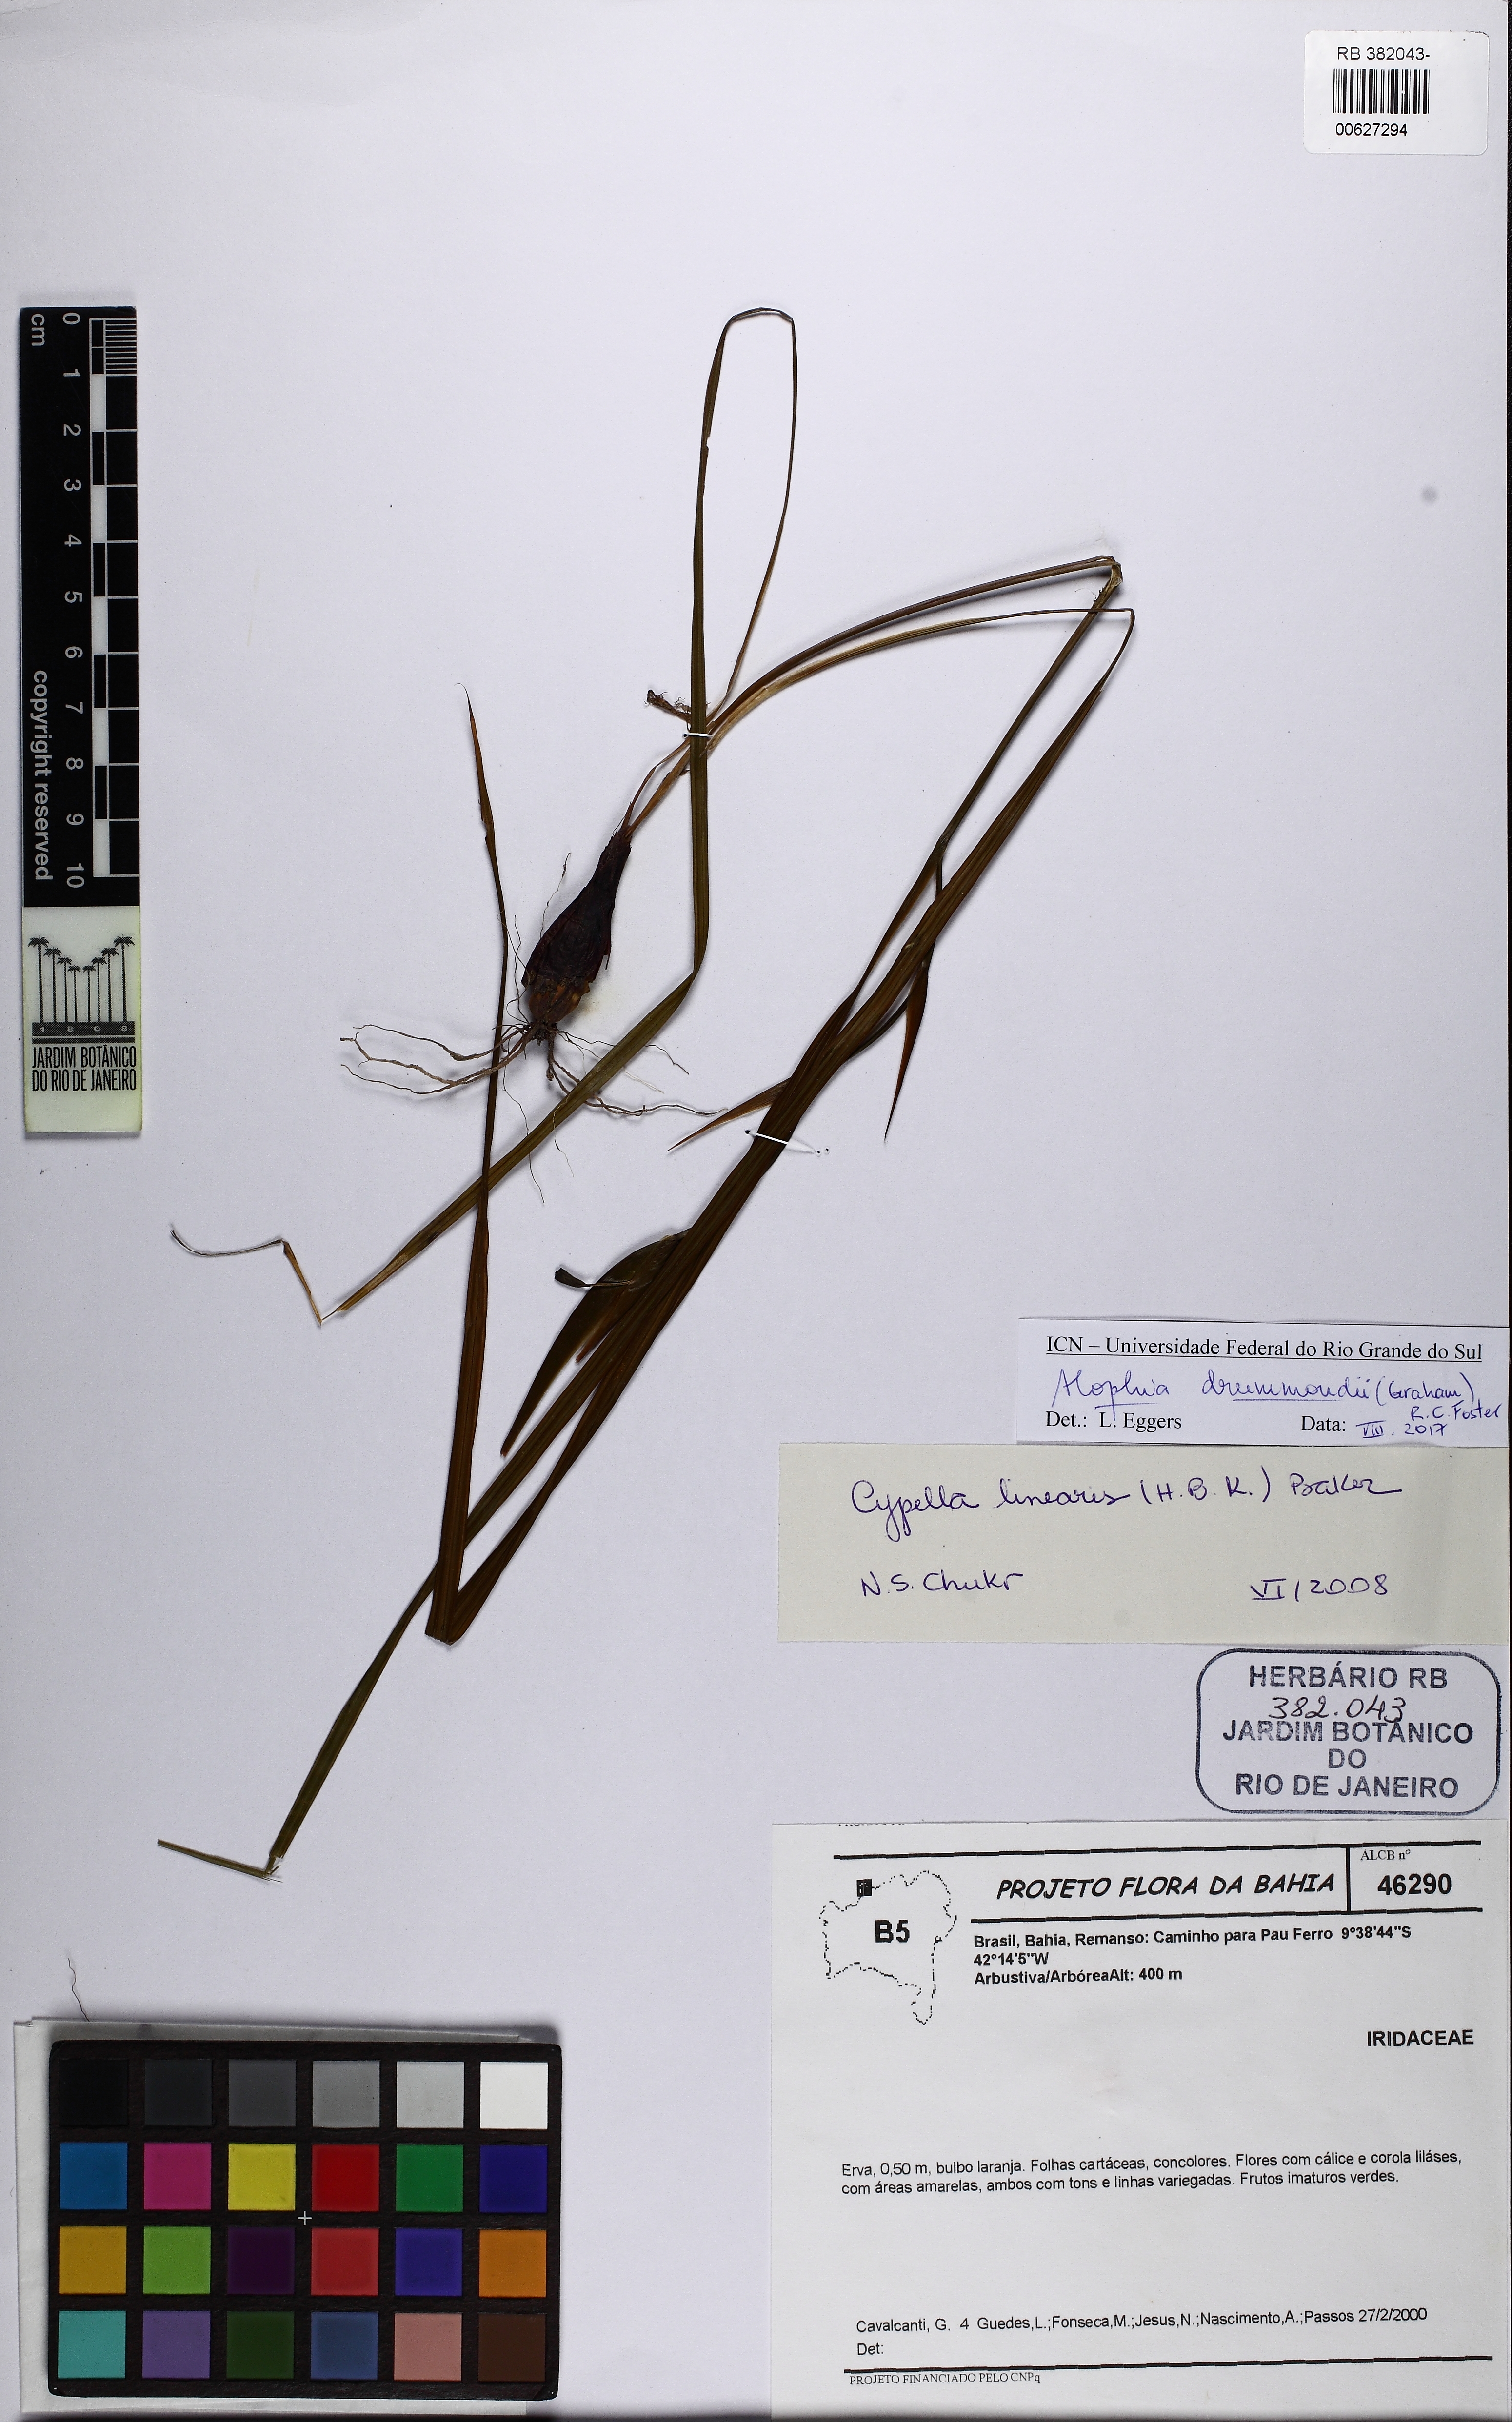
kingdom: Plantae
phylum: Tracheophyta
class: Liliopsida
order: Asparagales
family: Iridaceae
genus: Alophia
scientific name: Alophia drummondii
